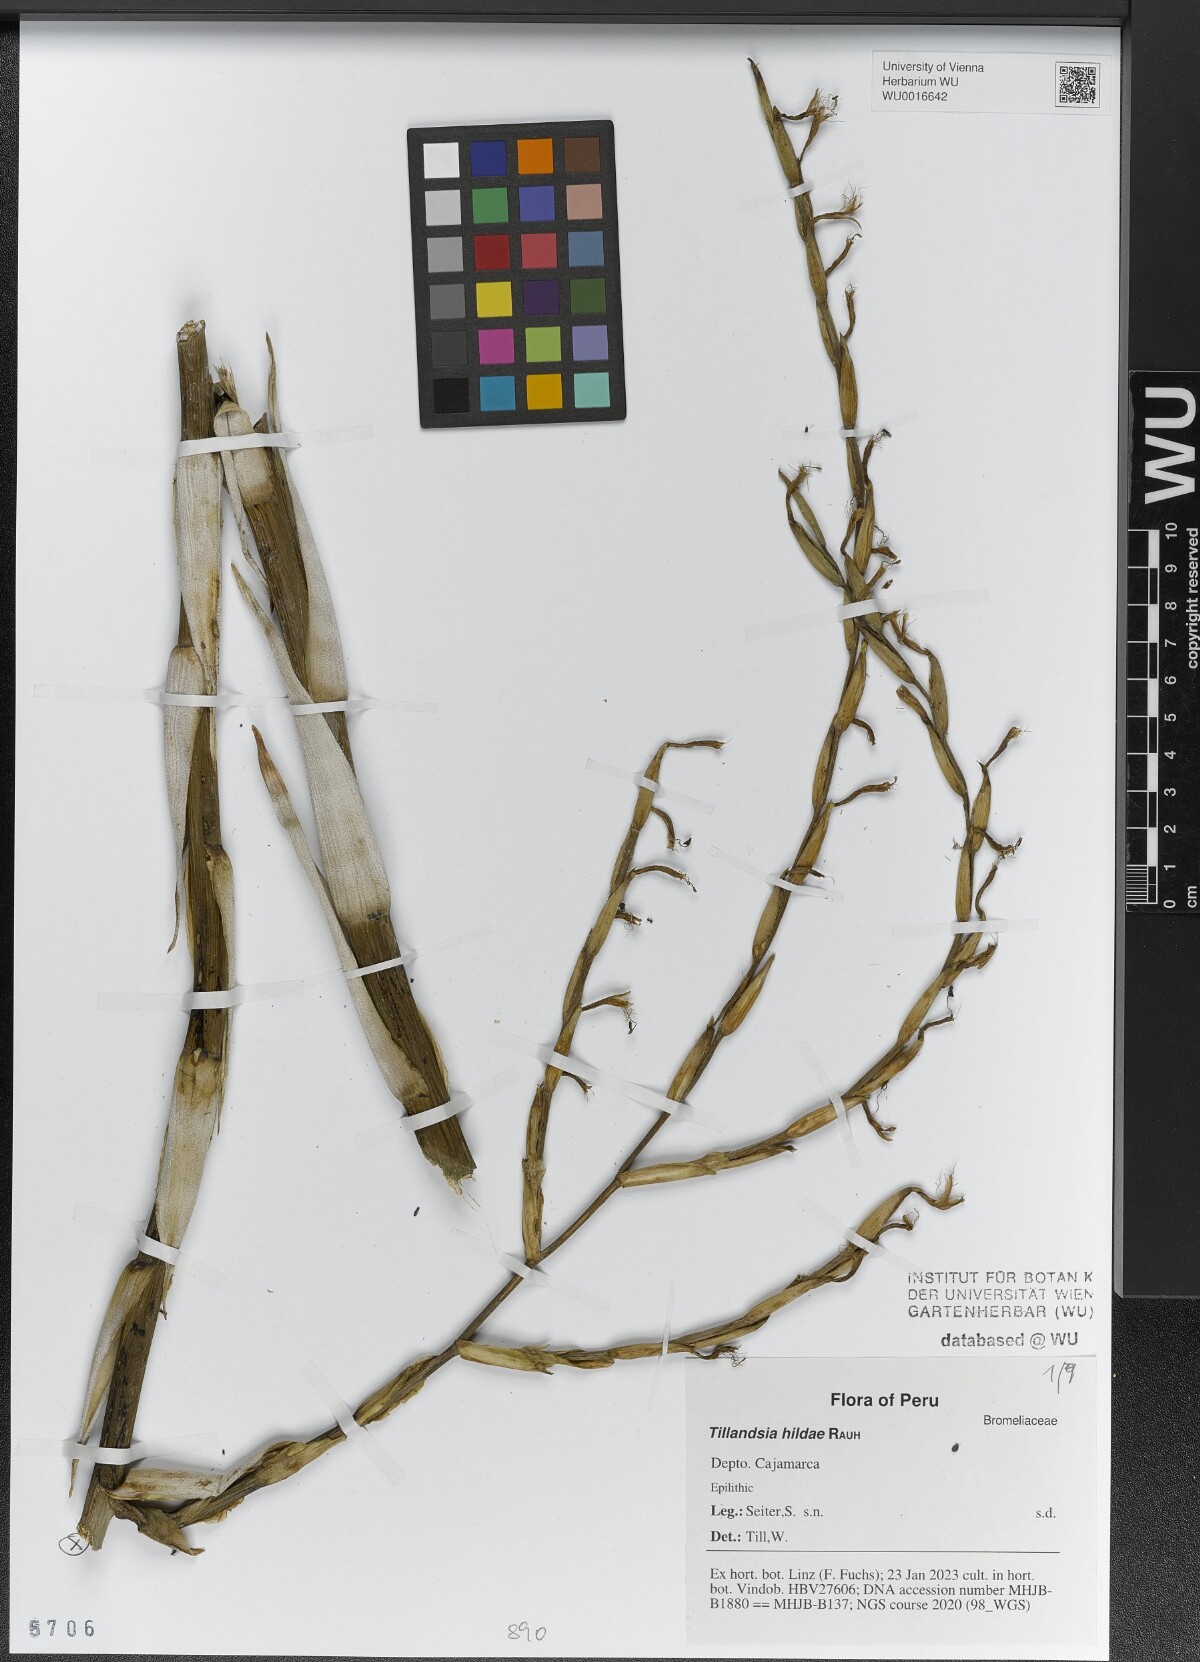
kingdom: Plantae
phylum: Tracheophyta
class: Liliopsida
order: Poales
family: Bromeliaceae
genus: Tillandsia
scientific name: Tillandsia hildae
